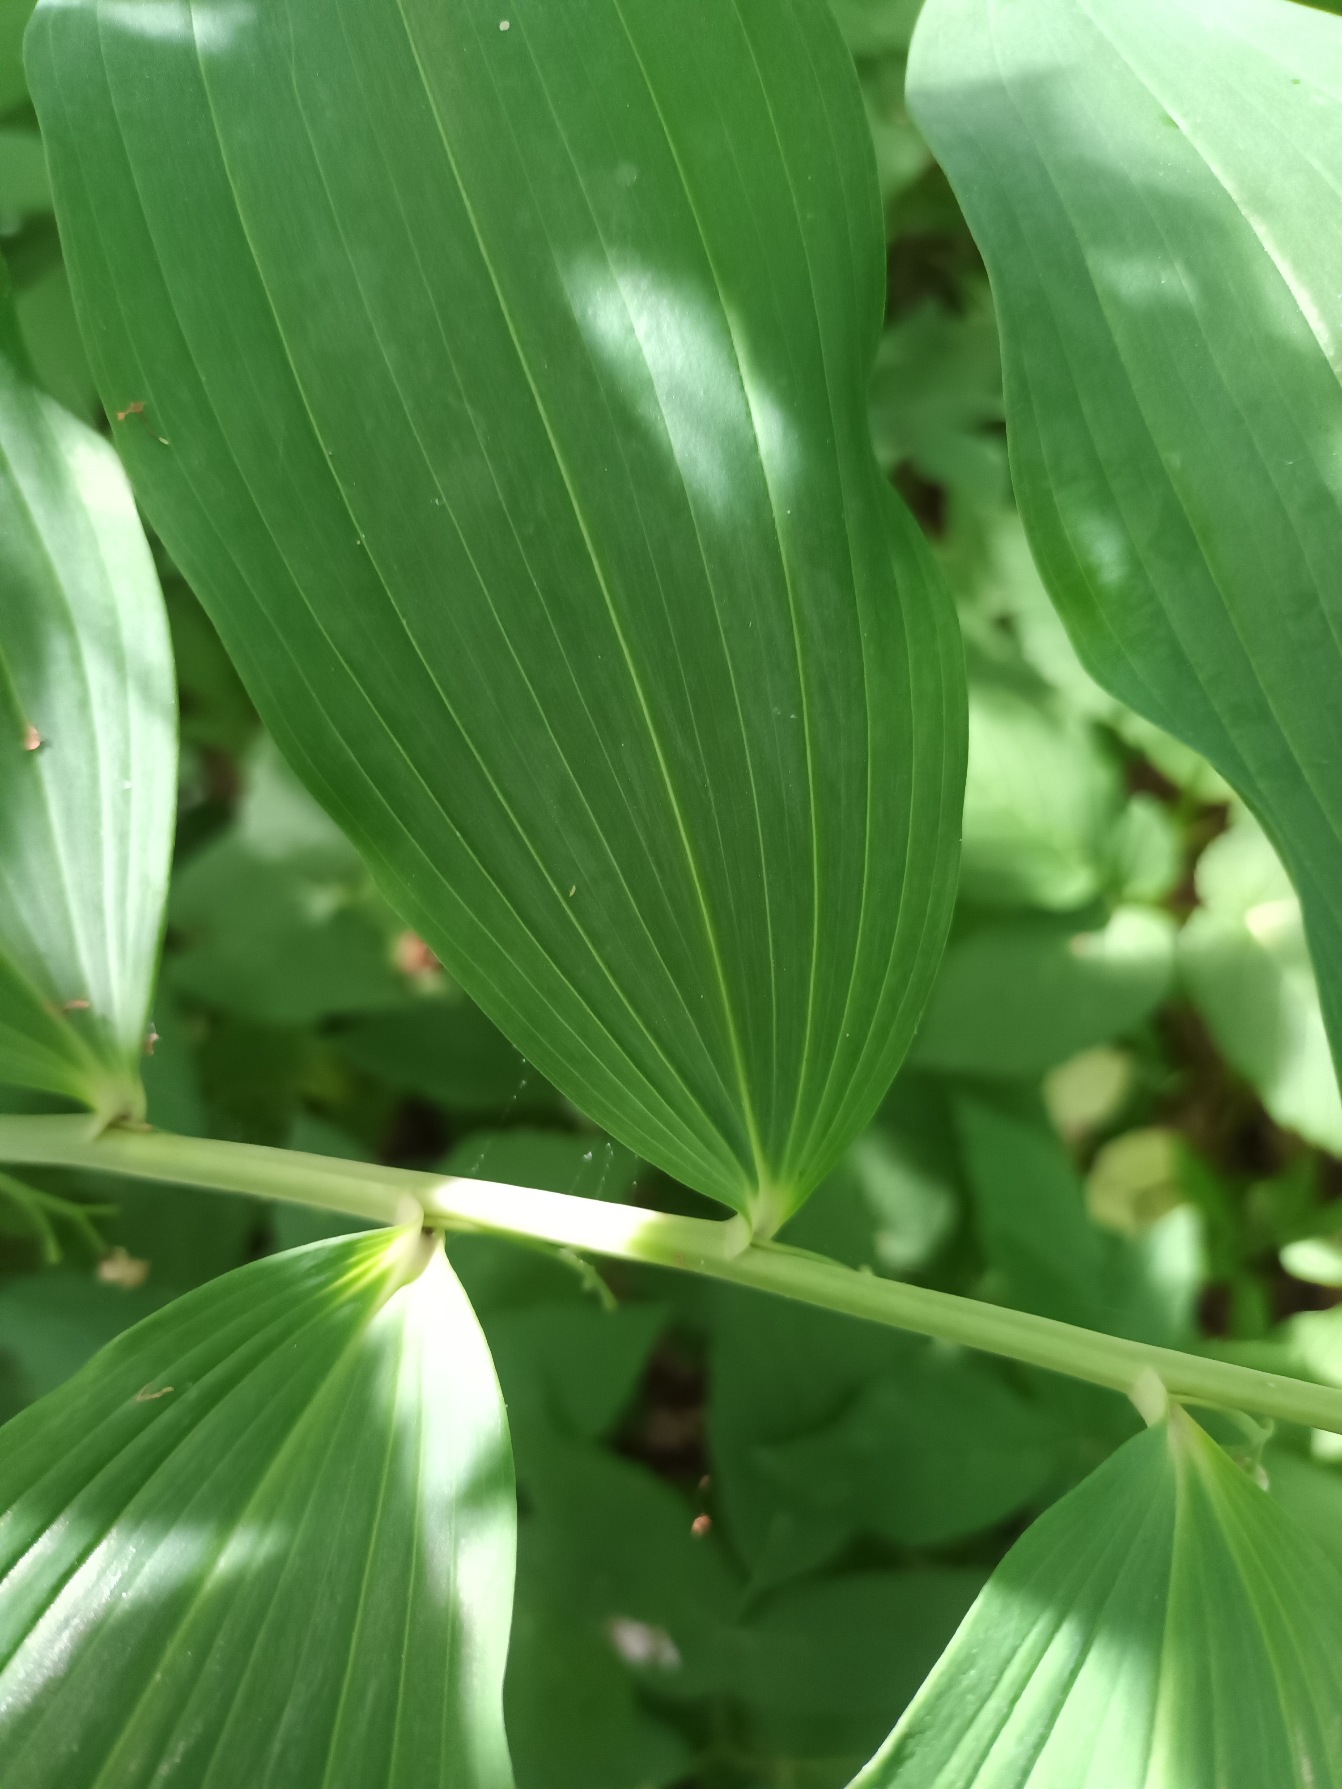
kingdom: Plantae
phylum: Tracheophyta
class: Liliopsida
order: Asparagales
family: Asparagaceae
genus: Polygonatum
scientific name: Polygonatum
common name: Hybrid-konval
